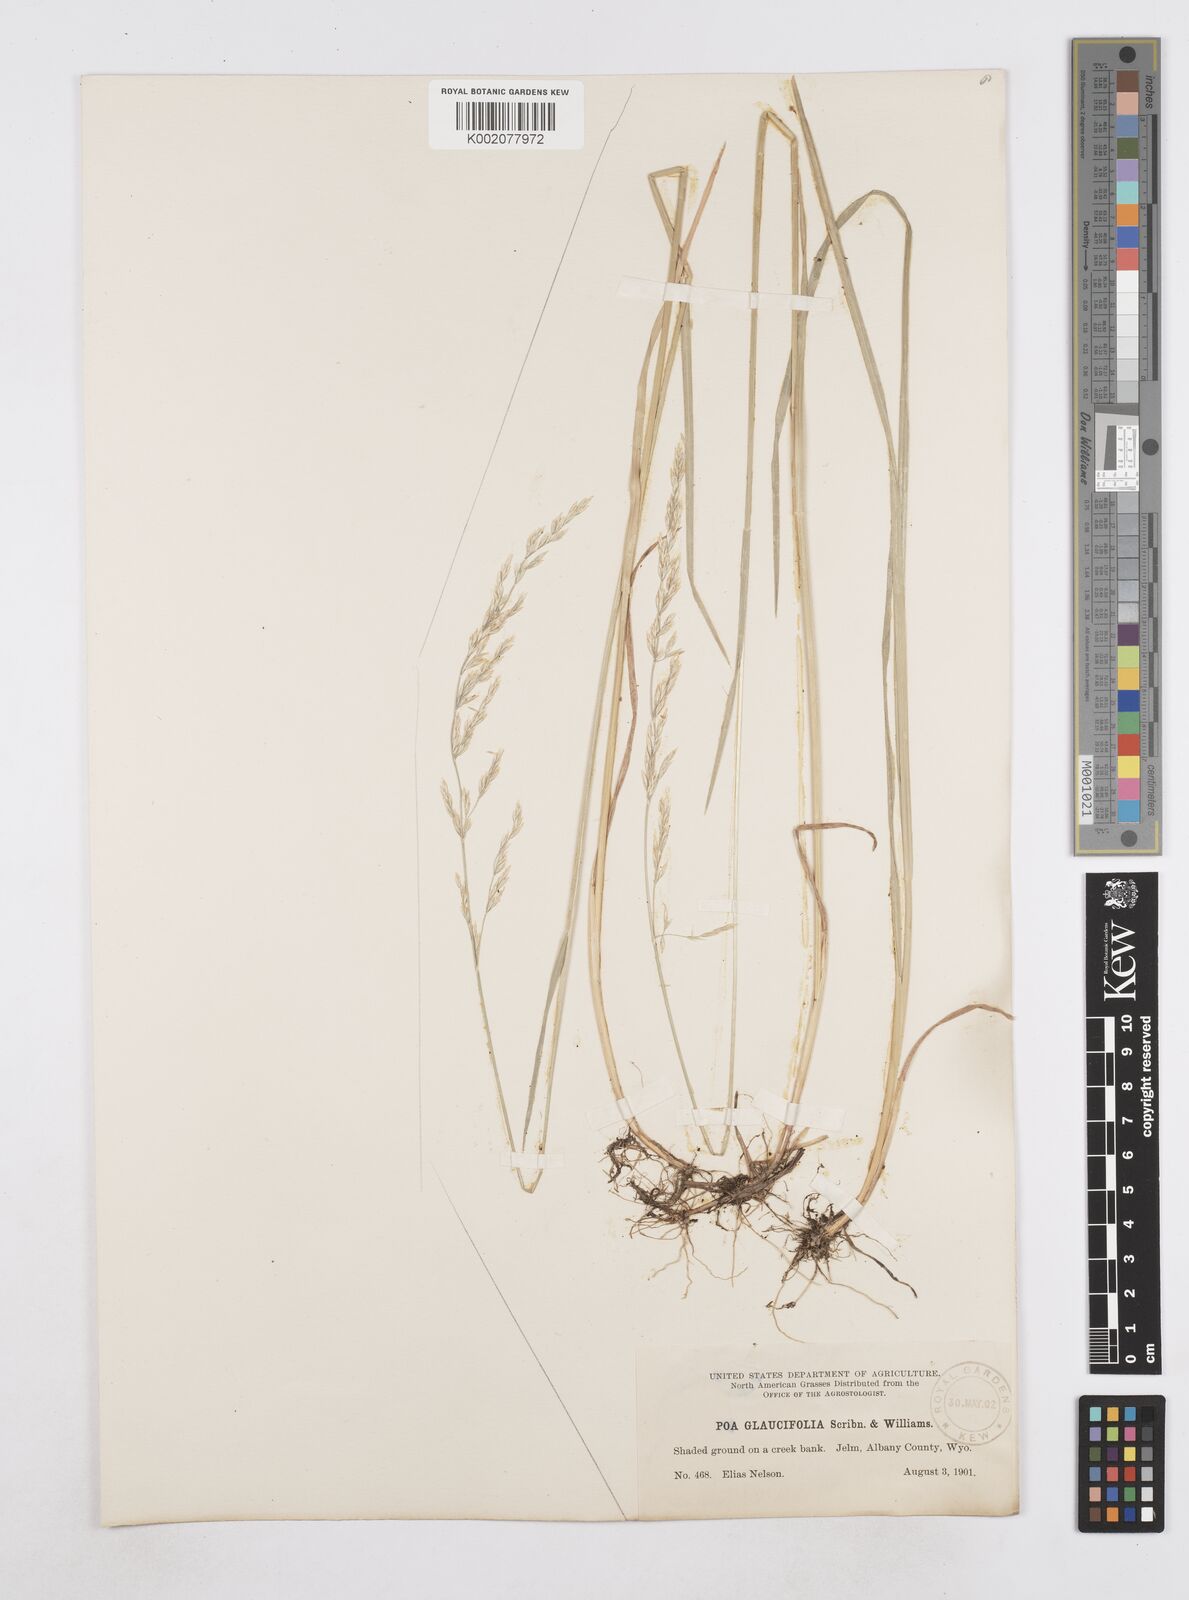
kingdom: Plantae
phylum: Tracheophyta
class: Liliopsida
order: Poales
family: Poaceae
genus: Poa
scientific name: Poa arida
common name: Plains bluegrass
